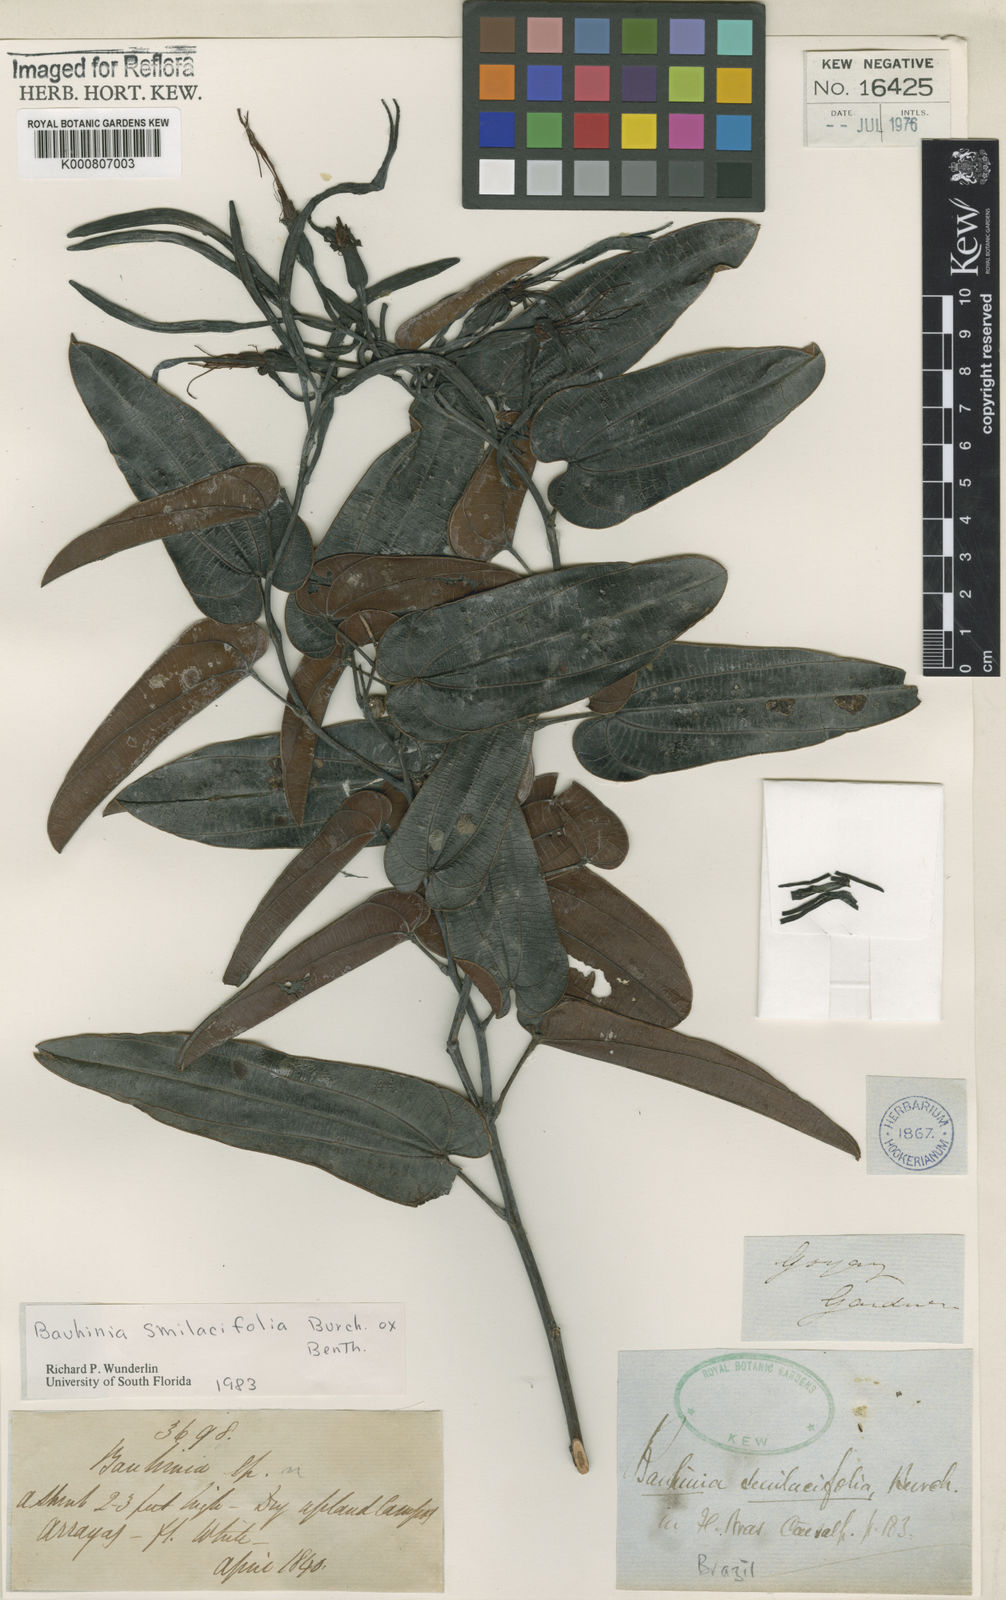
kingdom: Plantae
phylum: Tracheophyta
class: Magnoliopsida
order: Fabales
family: Fabaceae
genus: Bauhinia
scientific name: Bauhinia smilacifolia
